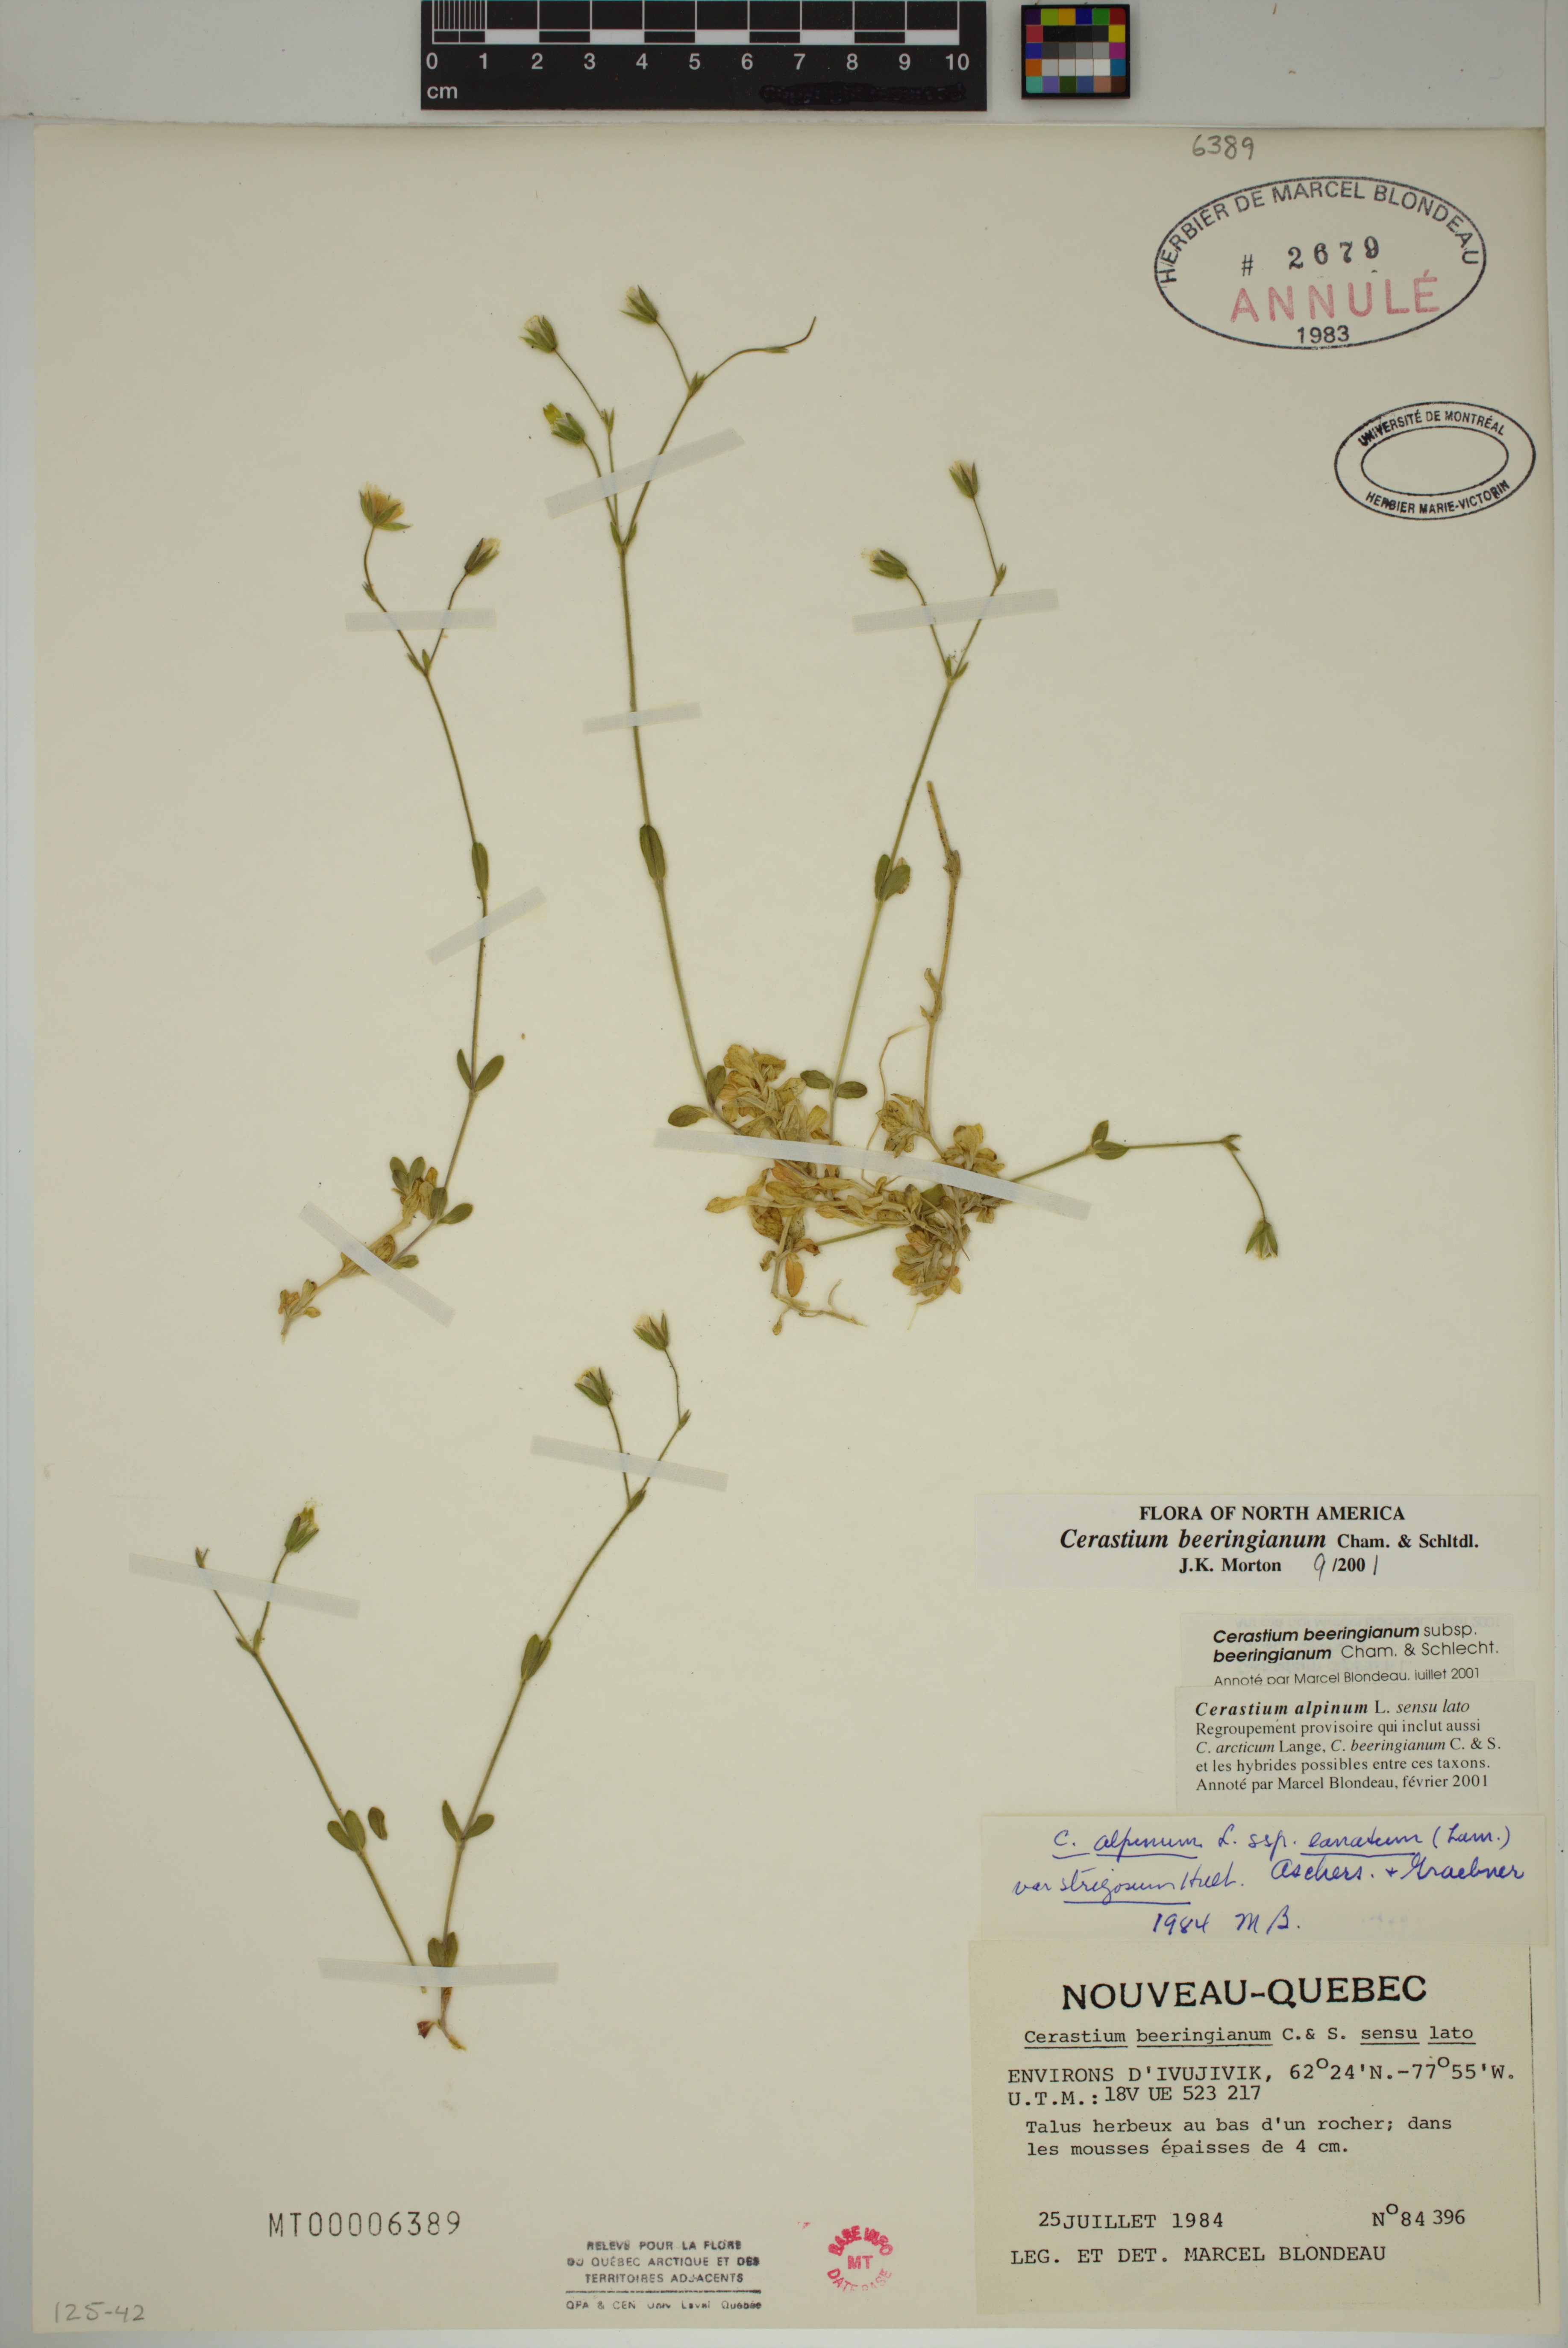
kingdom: Plantae
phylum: Tracheophyta
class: Magnoliopsida
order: Caryophyllales
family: Caryophyllaceae
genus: Cerastium
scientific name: Cerastium beeringianum
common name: Bering mouse-ear chickweed
